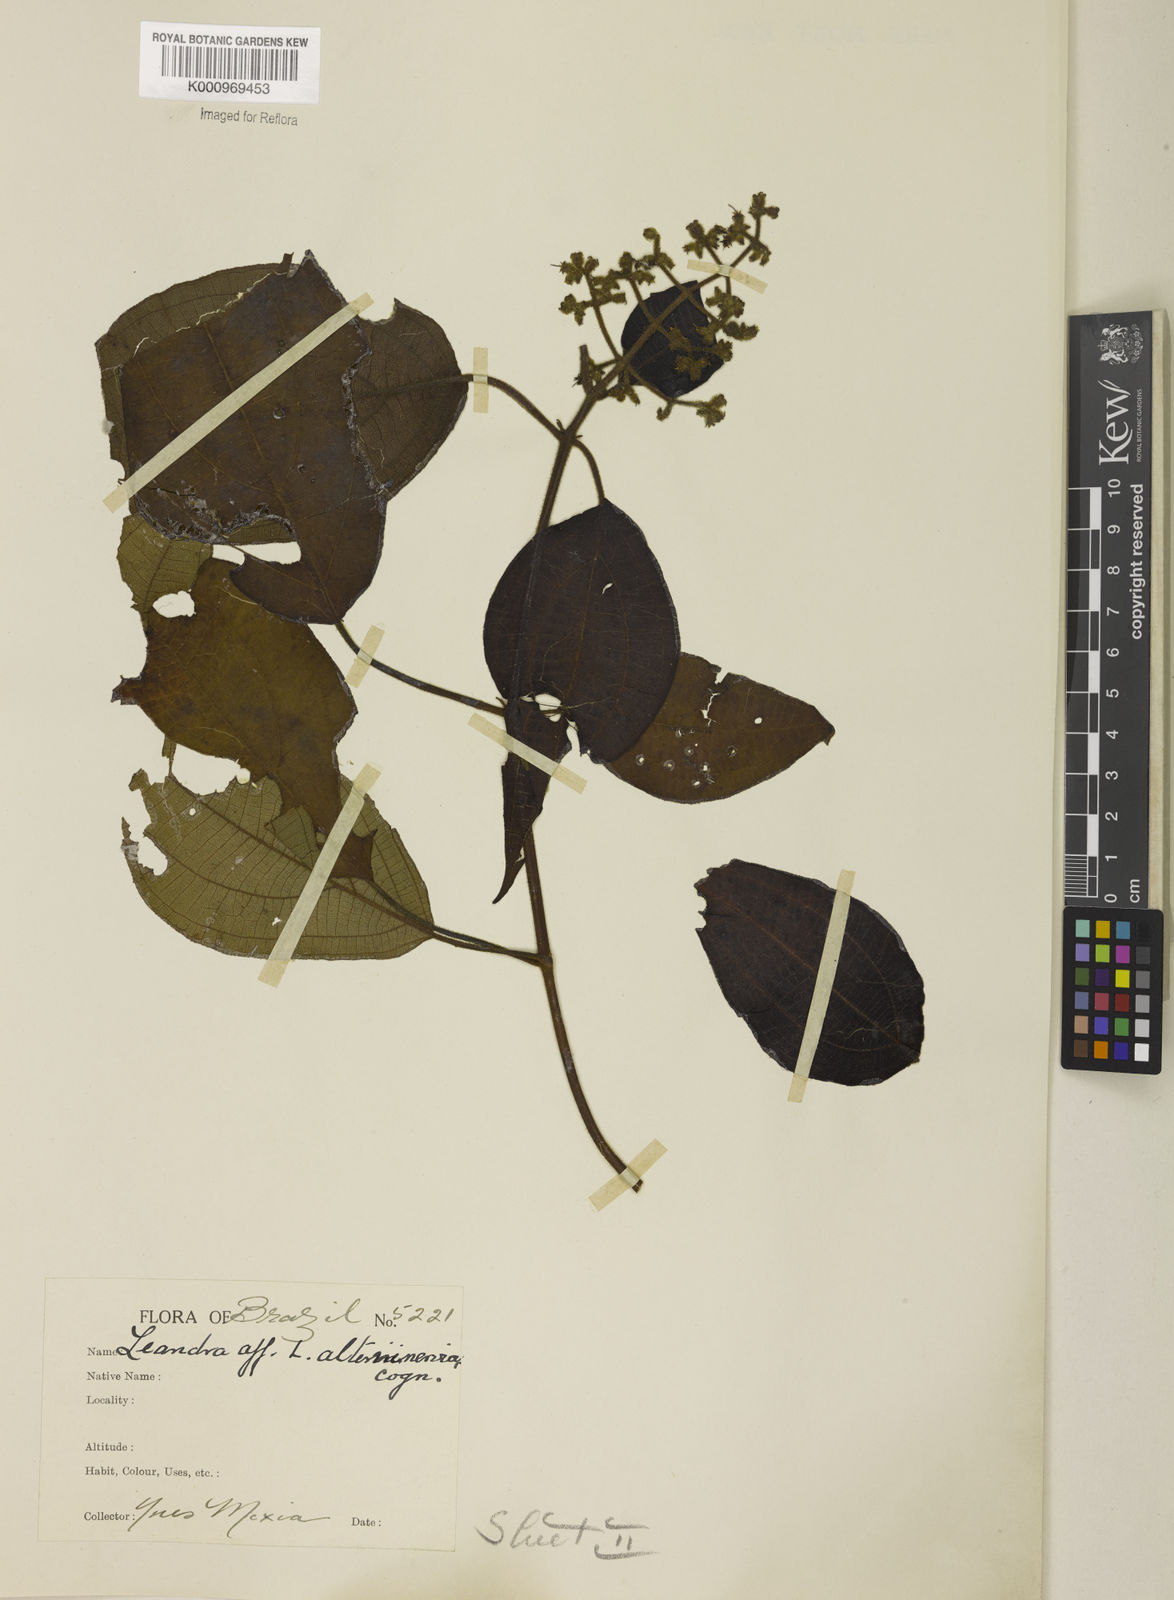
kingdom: Plantae
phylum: Tracheophyta
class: Magnoliopsida
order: Myrtales
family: Melastomataceae
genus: Miconia
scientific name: Miconia
